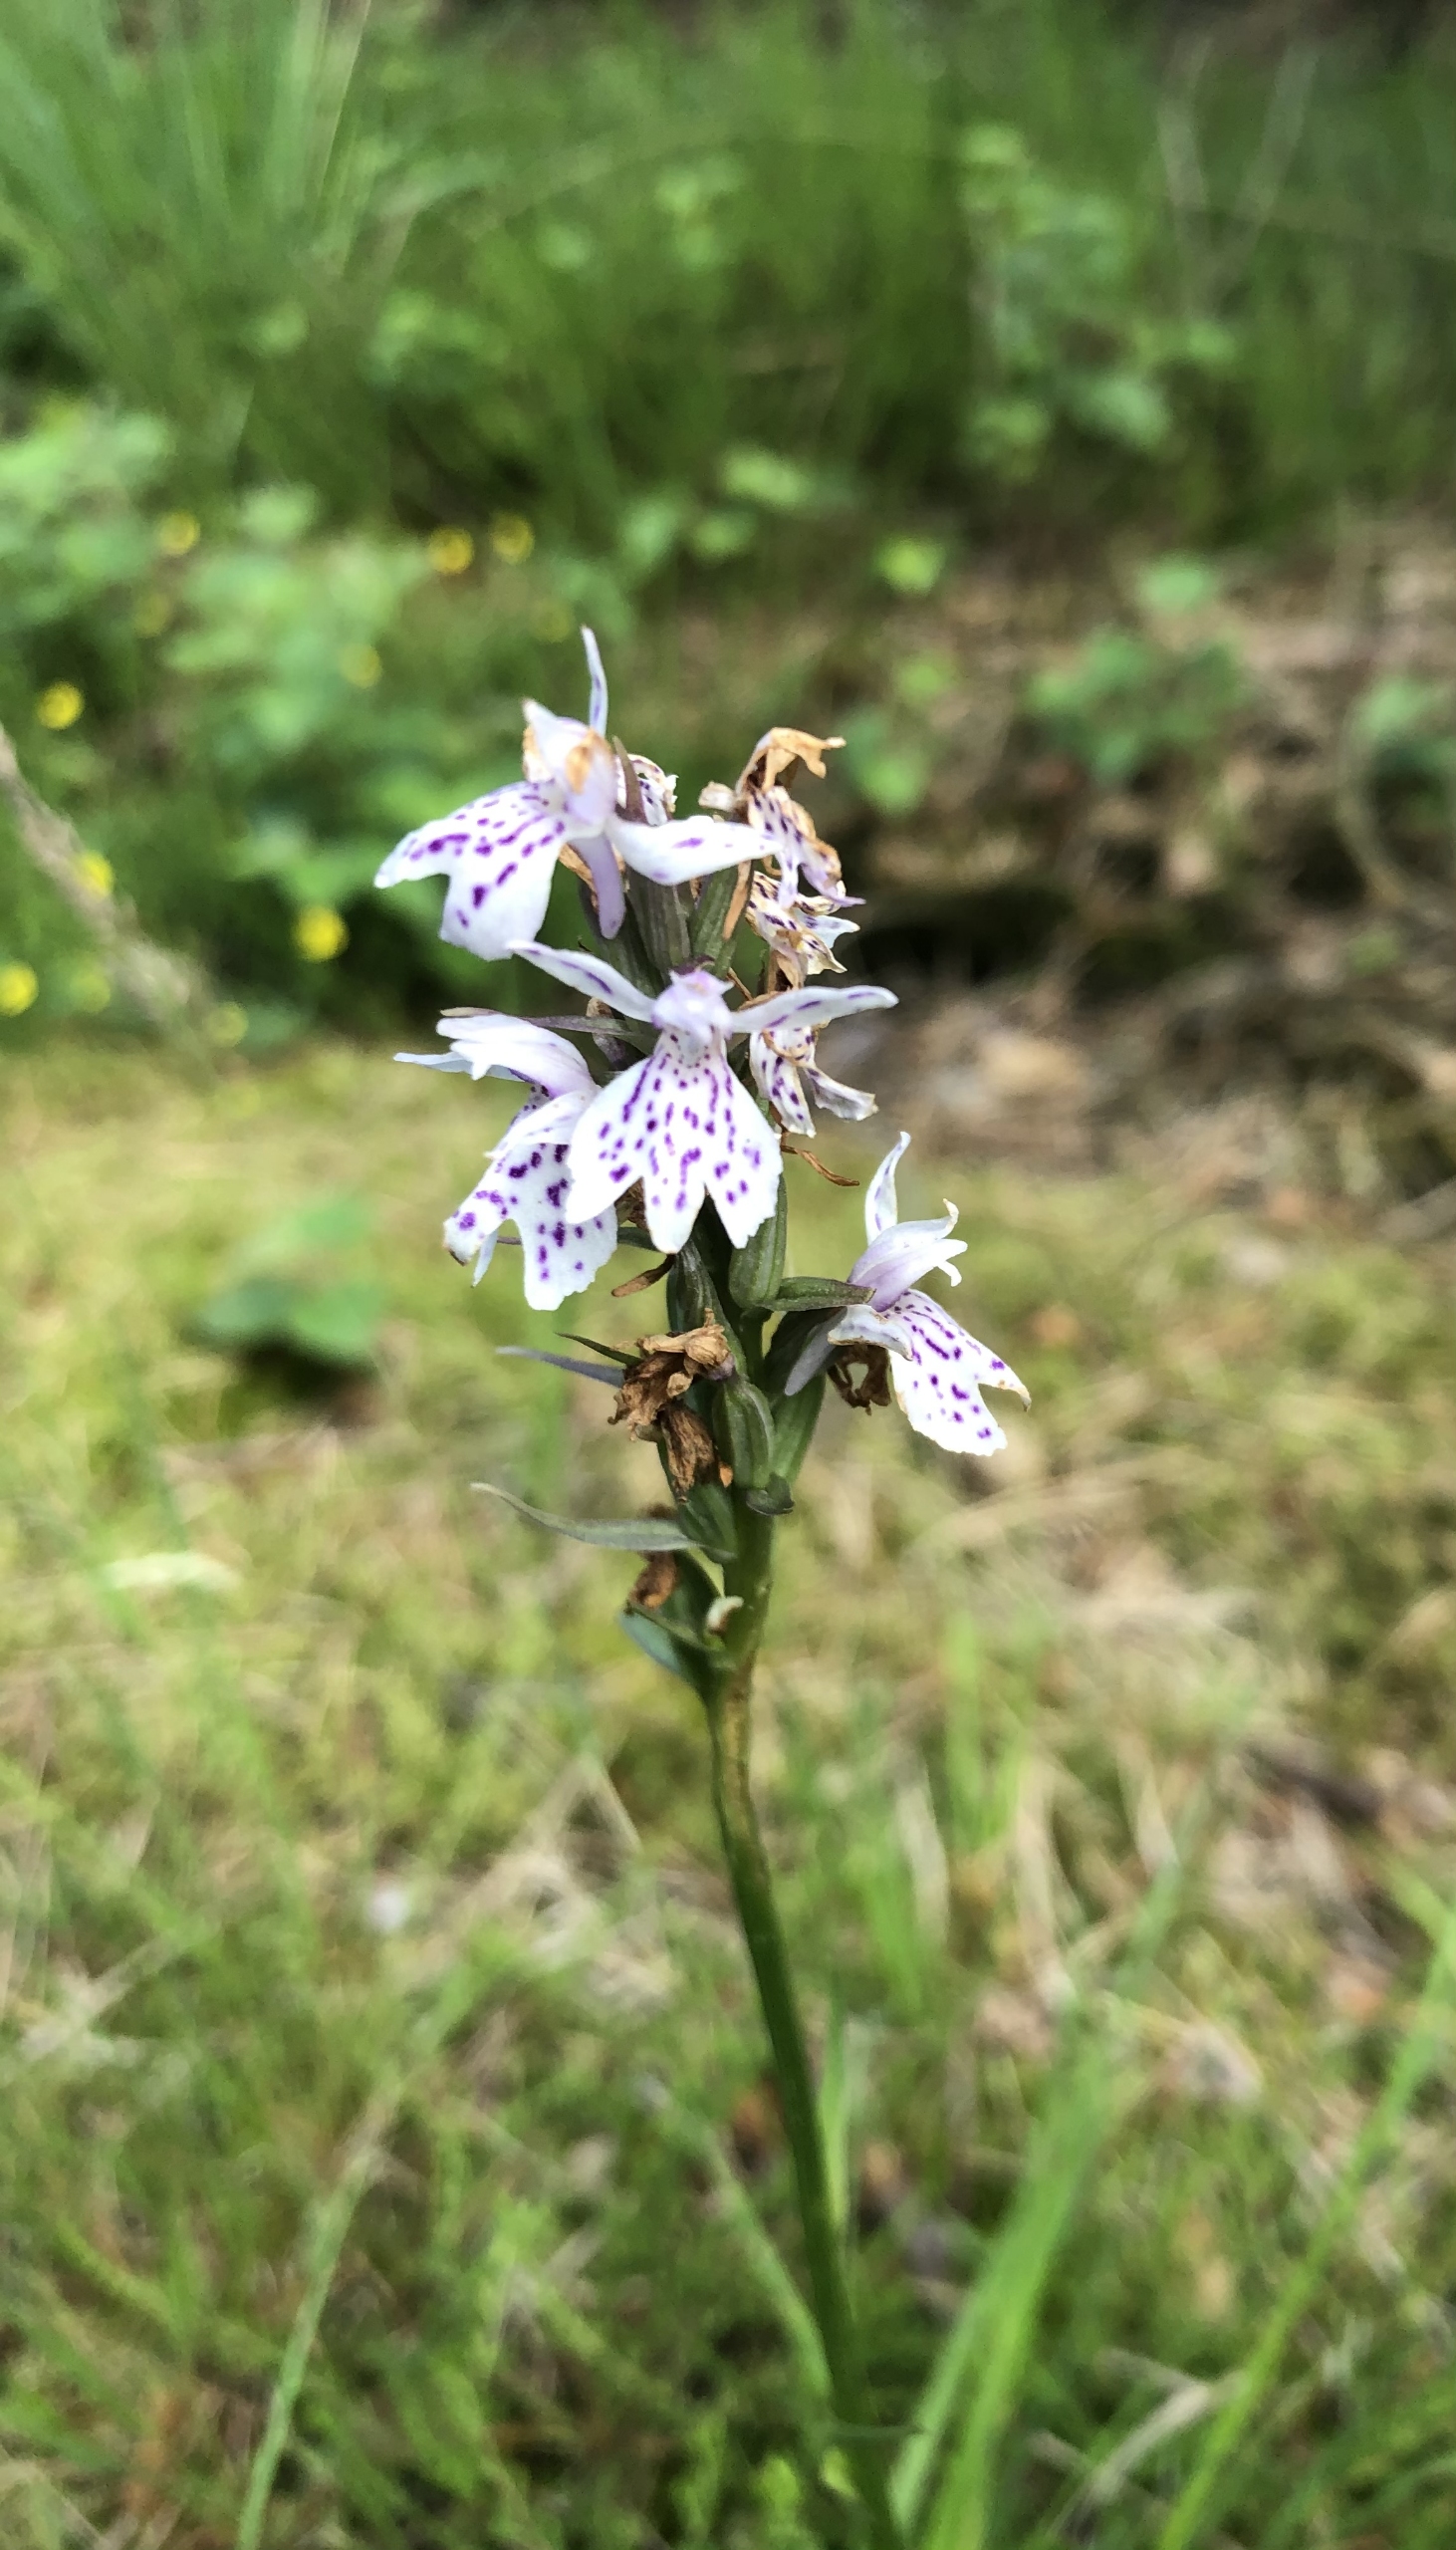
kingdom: Plantae
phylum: Tracheophyta
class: Liliopsida
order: Asparagales
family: Orchidaceae
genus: Dactylorhiza
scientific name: Dactylorhiza maculata
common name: Skov-gøgeurt
